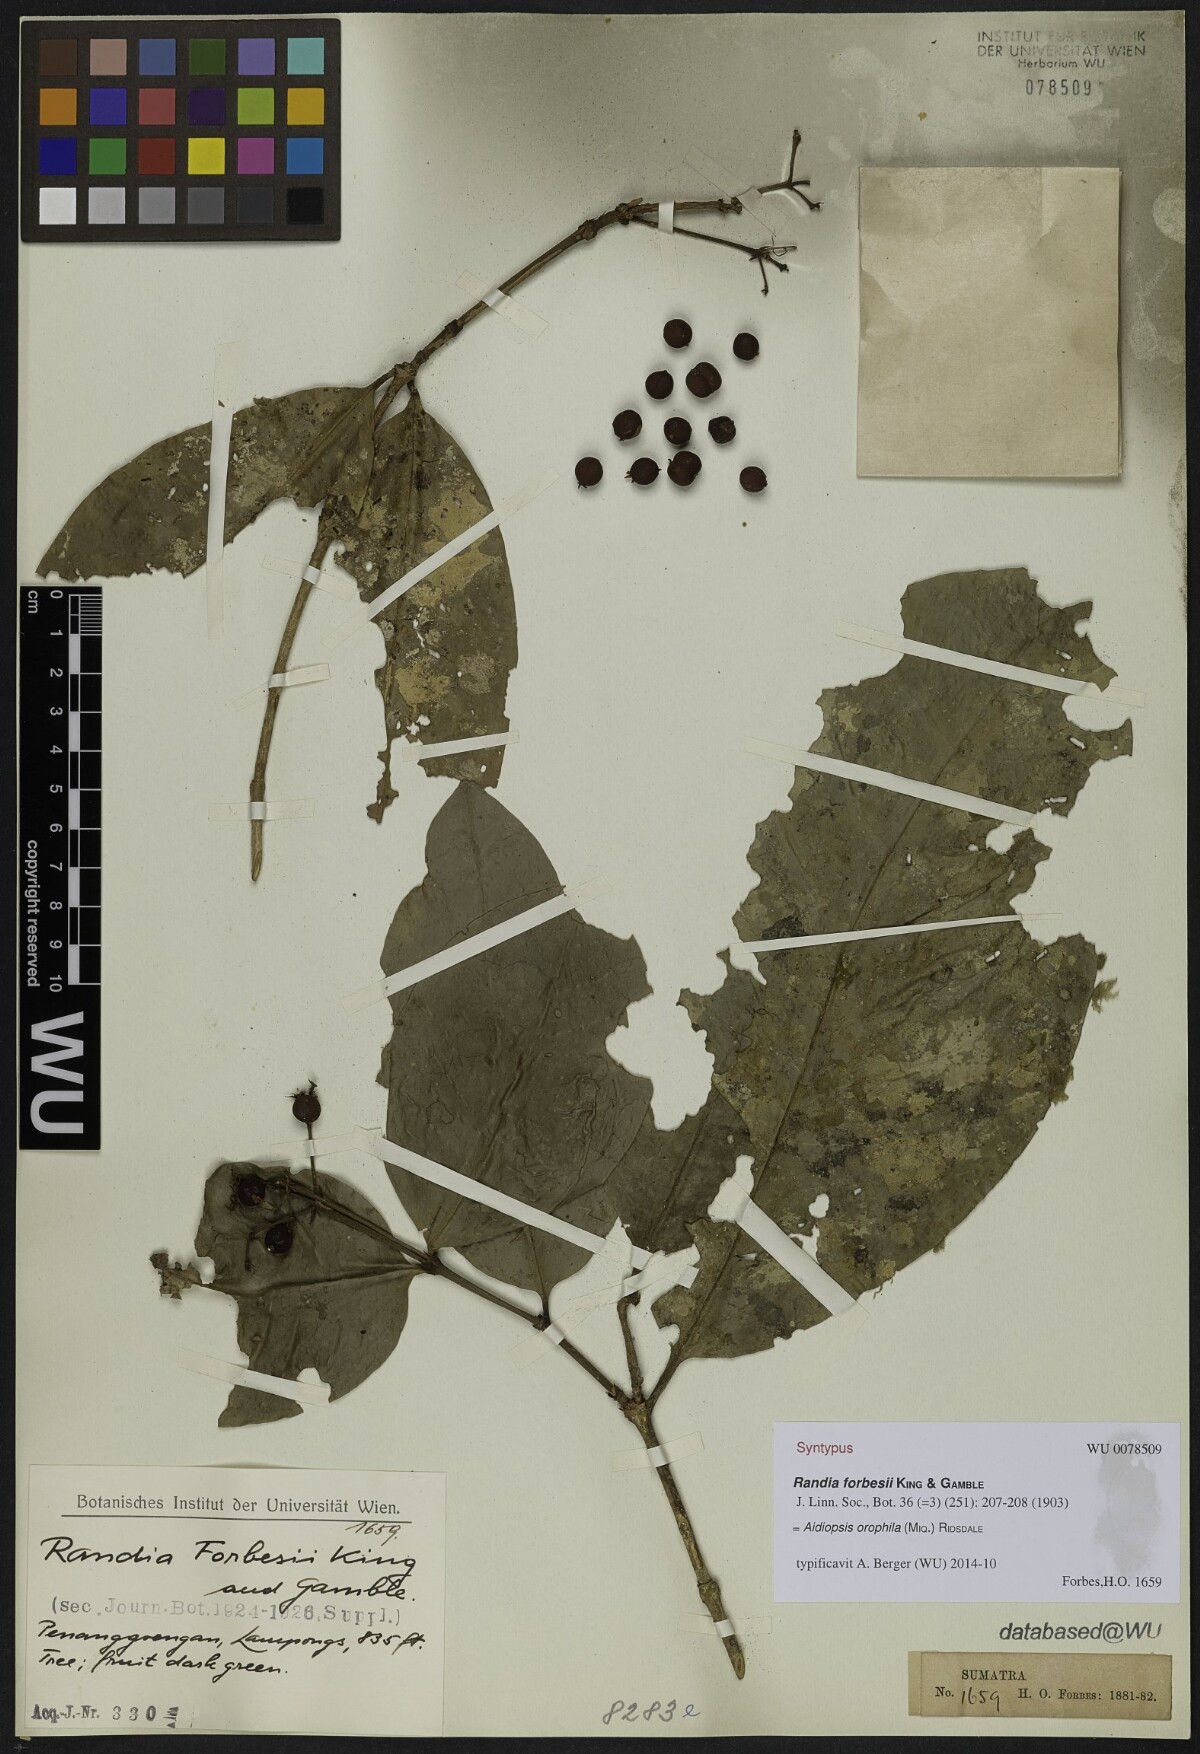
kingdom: Plantae
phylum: Tracheophyta
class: Magnoliopsida
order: Gentianales
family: Rubiaceae
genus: Aidiopsis
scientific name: Aidiopsis orophila
